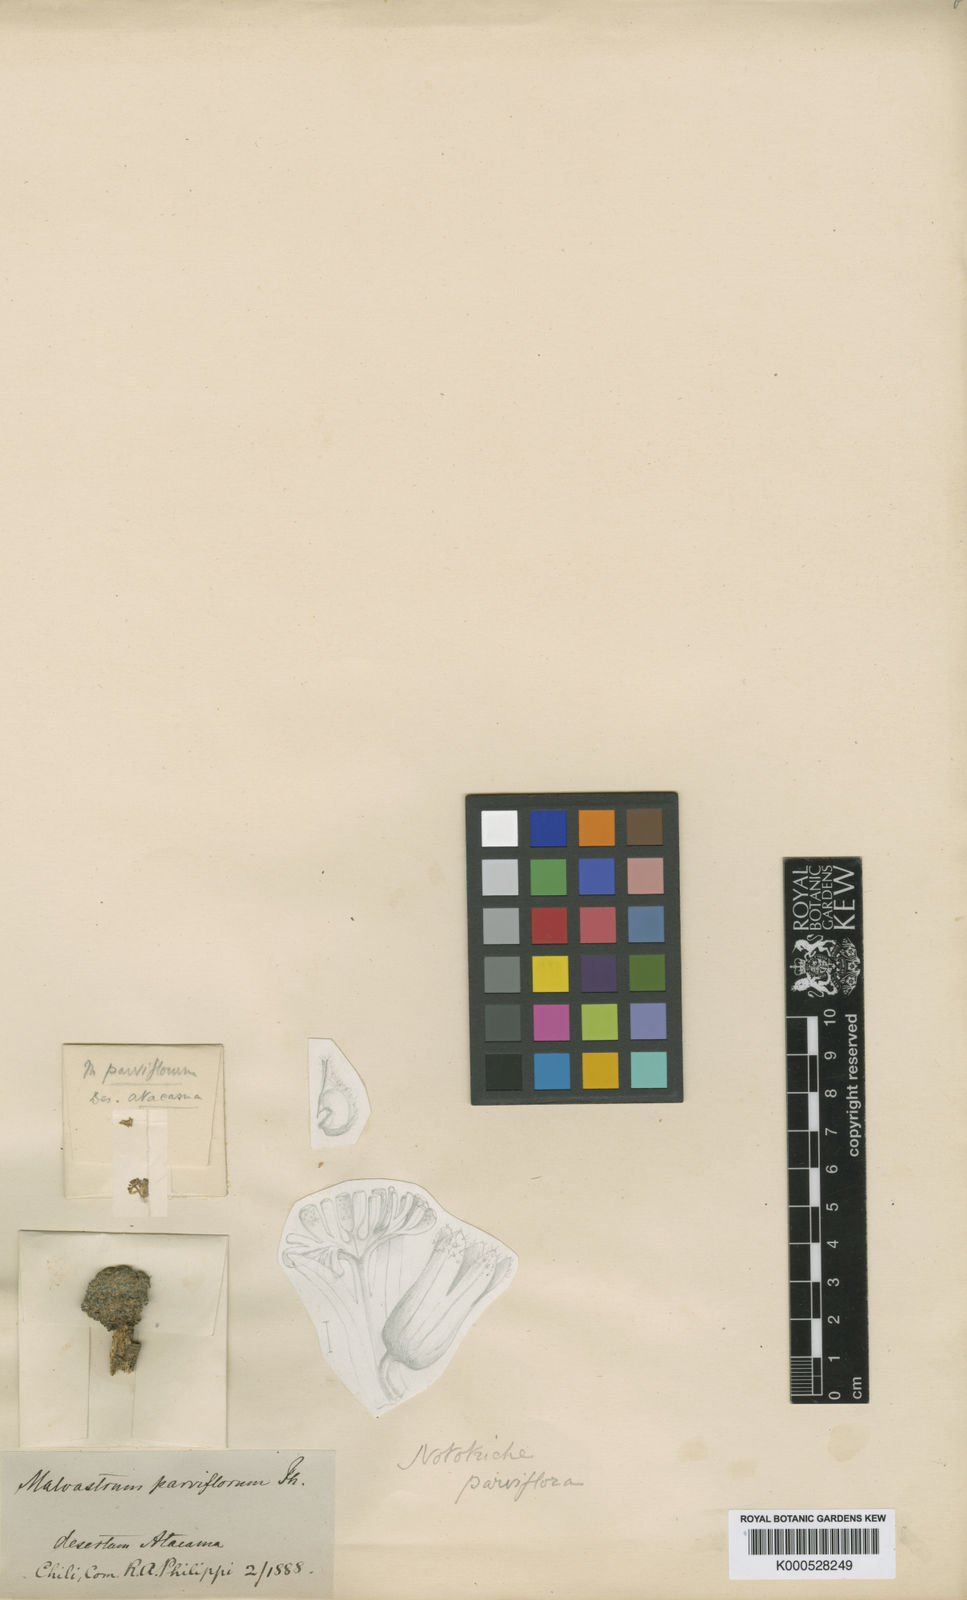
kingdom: Plantae
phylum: Tracheophyta
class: Magnoliopsida
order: Malvales
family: Malvaceae
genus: Nototriche
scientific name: Nototriche parviflora
